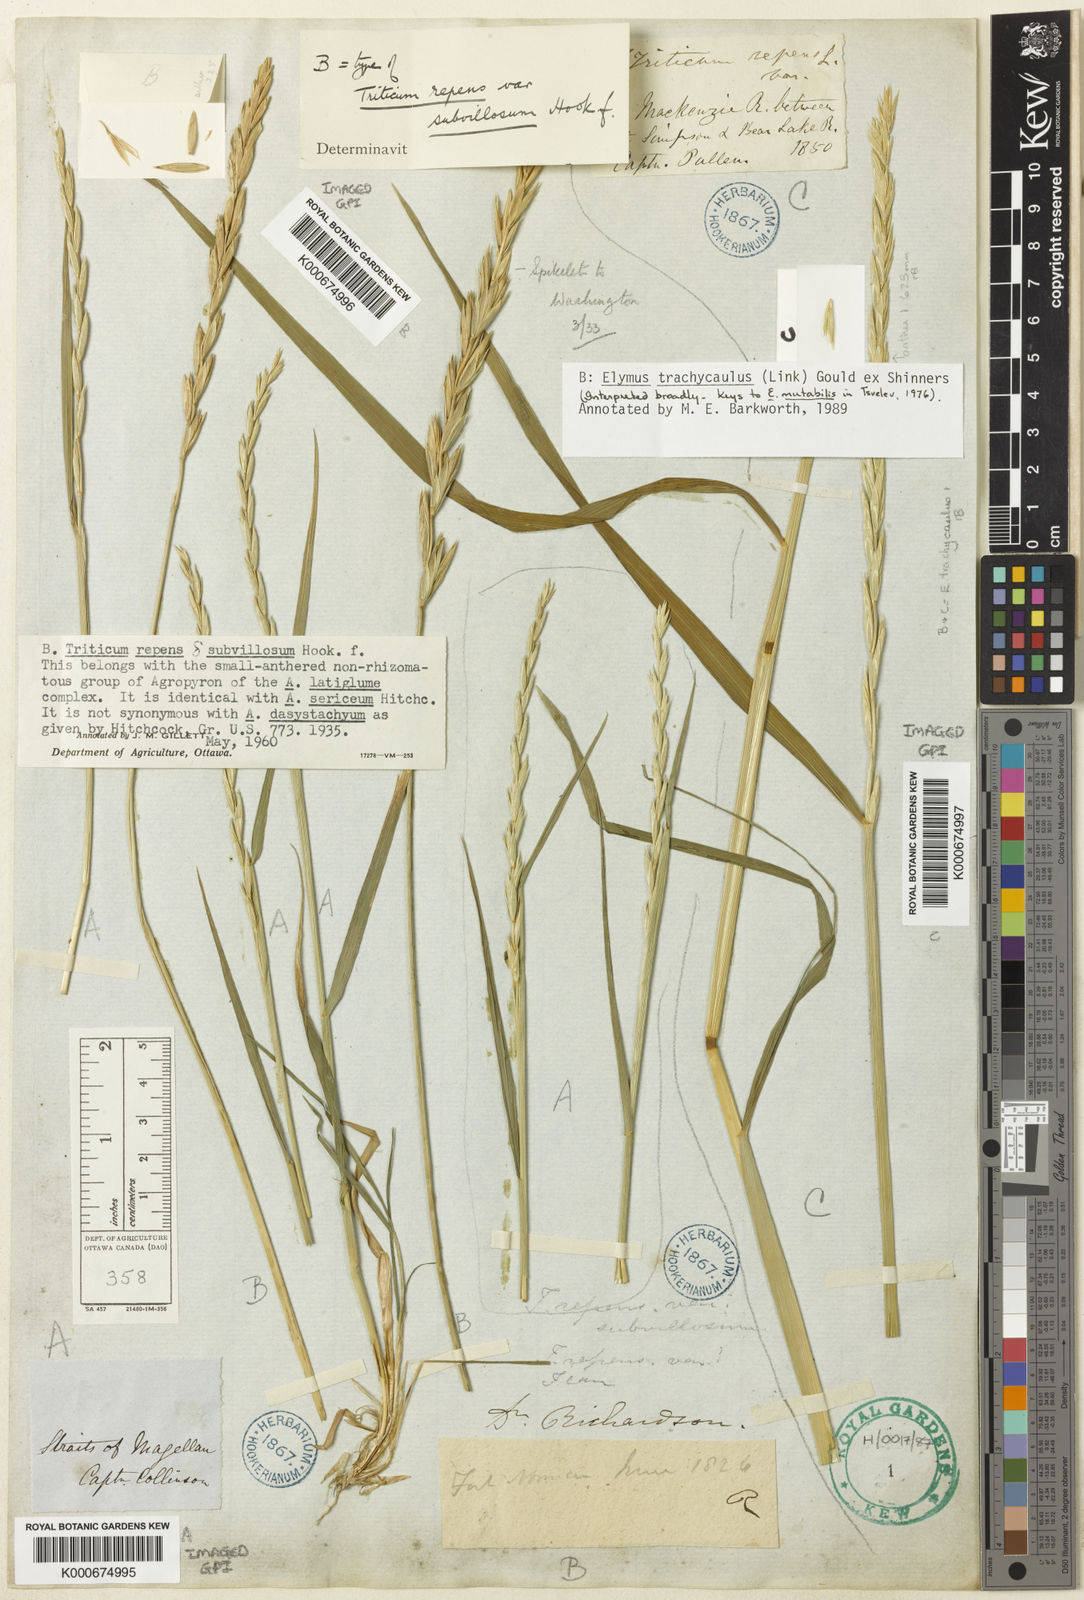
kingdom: Plantae
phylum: Tracheophyta
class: Liliopsida
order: Poales
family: Poaceae
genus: Elymus
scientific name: Elymus
